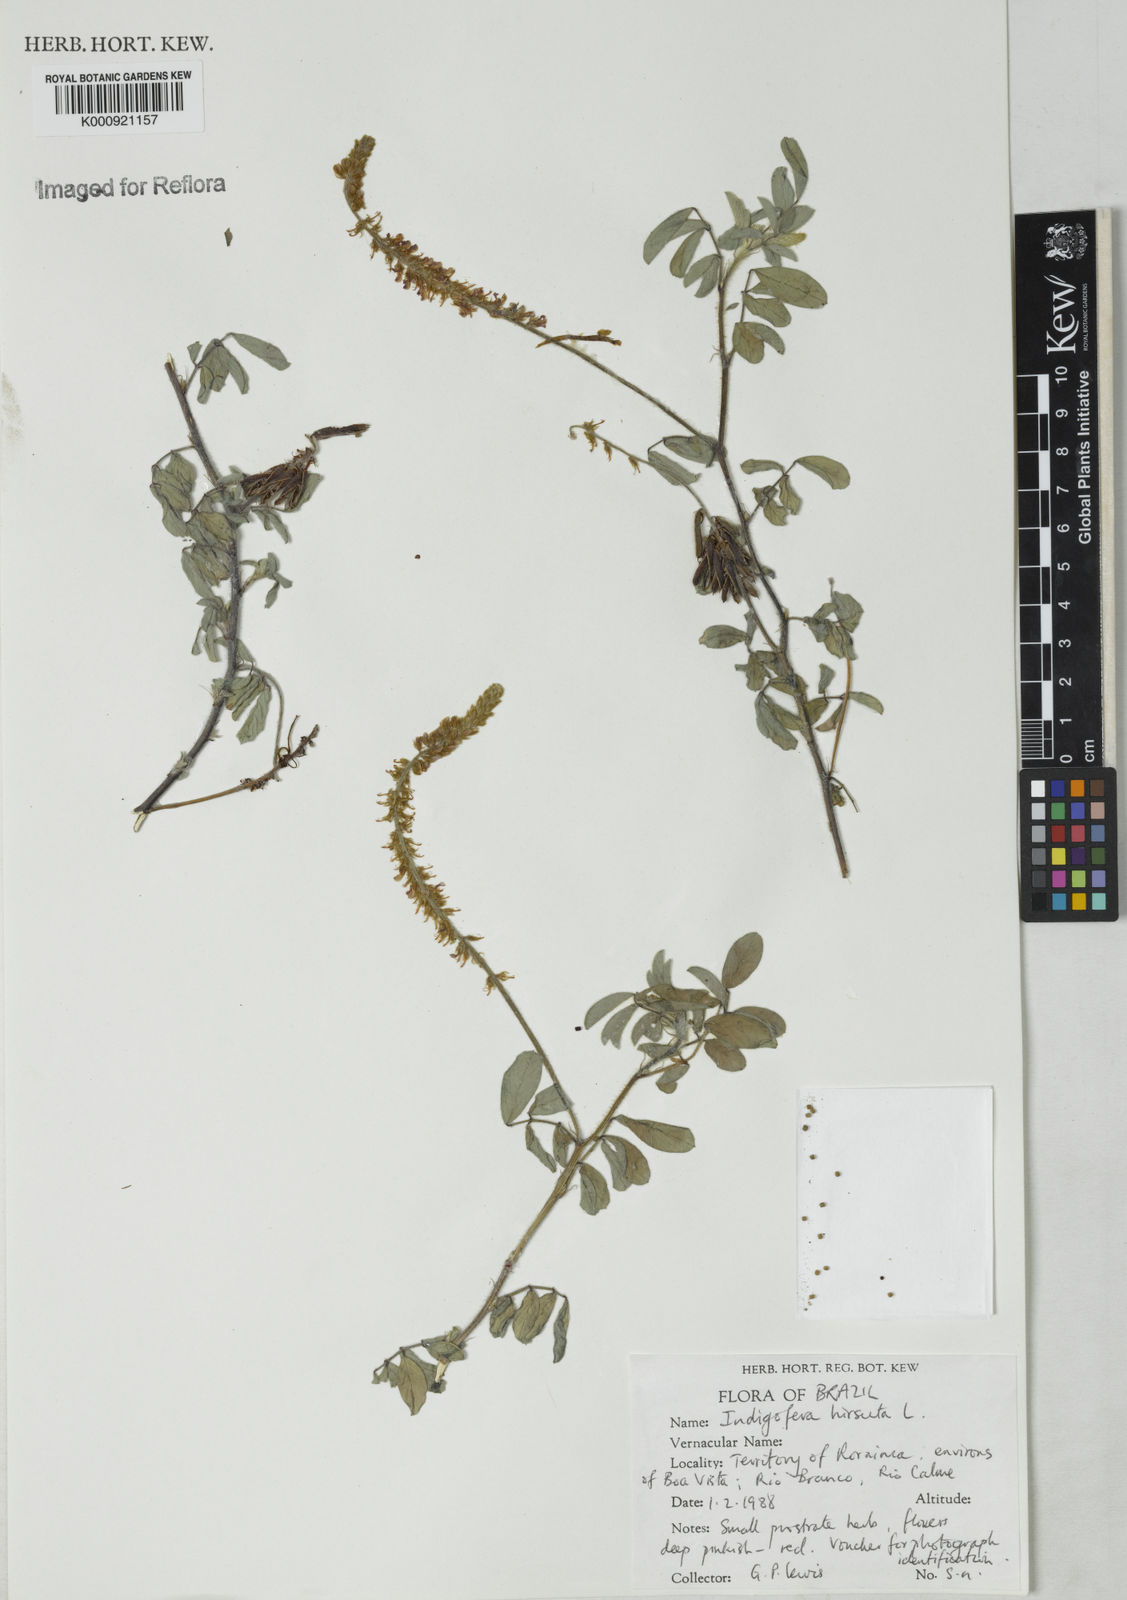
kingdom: Plantae
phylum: Tracheophyta
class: Magnoliopsida
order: Fabales
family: Fabaceae
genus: Indigofera
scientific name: Indigofera
